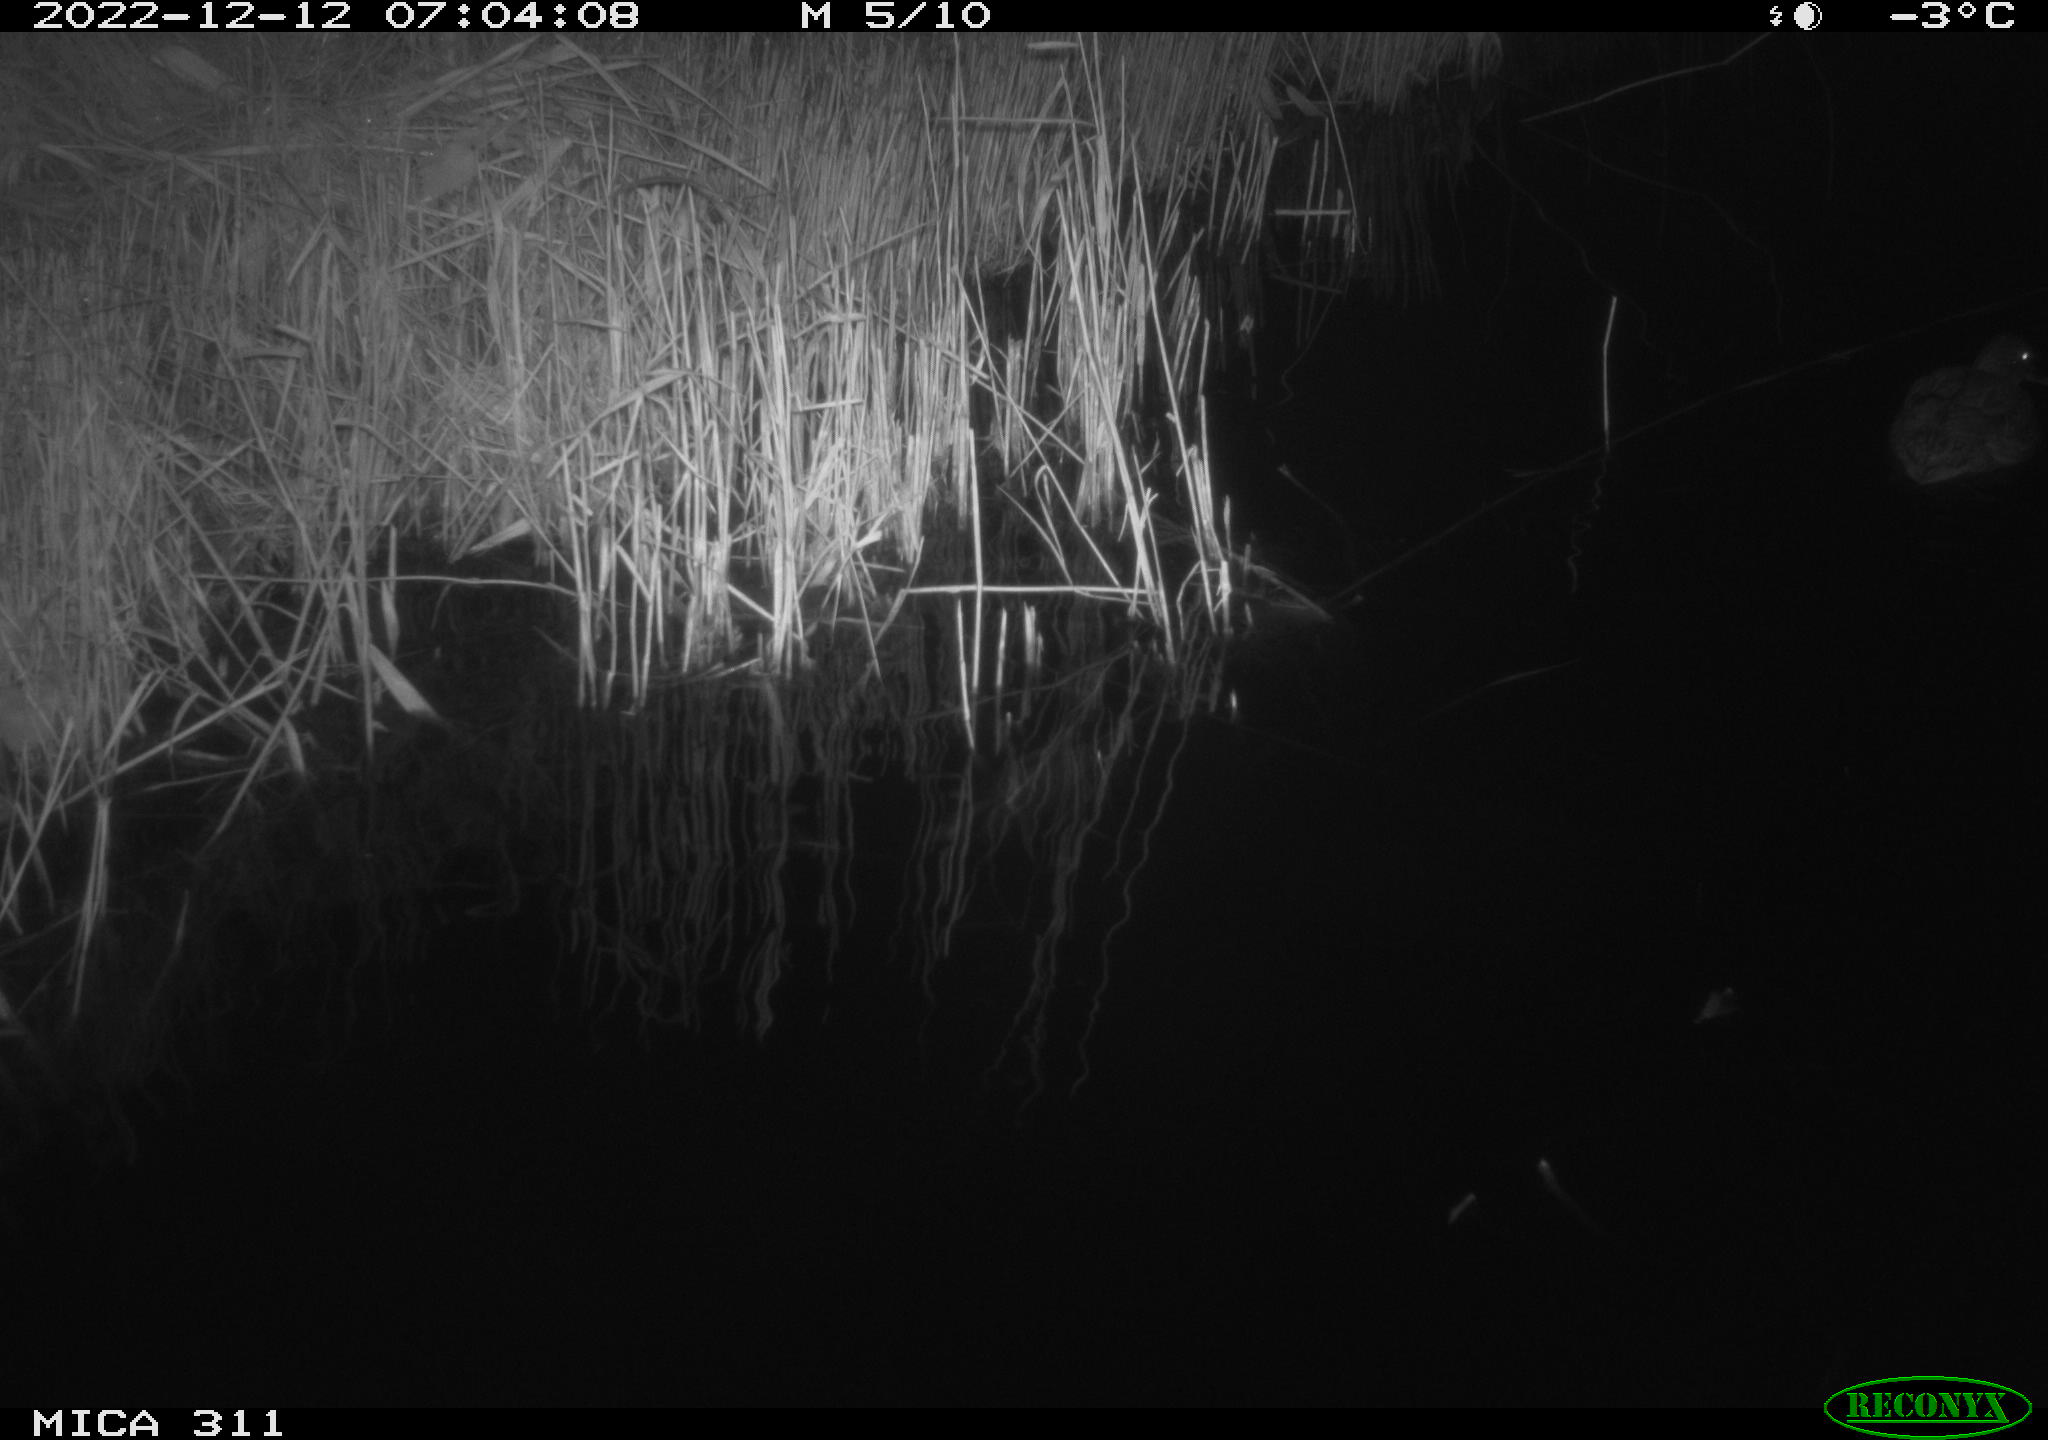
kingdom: Animalia
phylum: Chordata
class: Aves
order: Anseriformes
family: Anatidae
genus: Anas
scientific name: Anas
